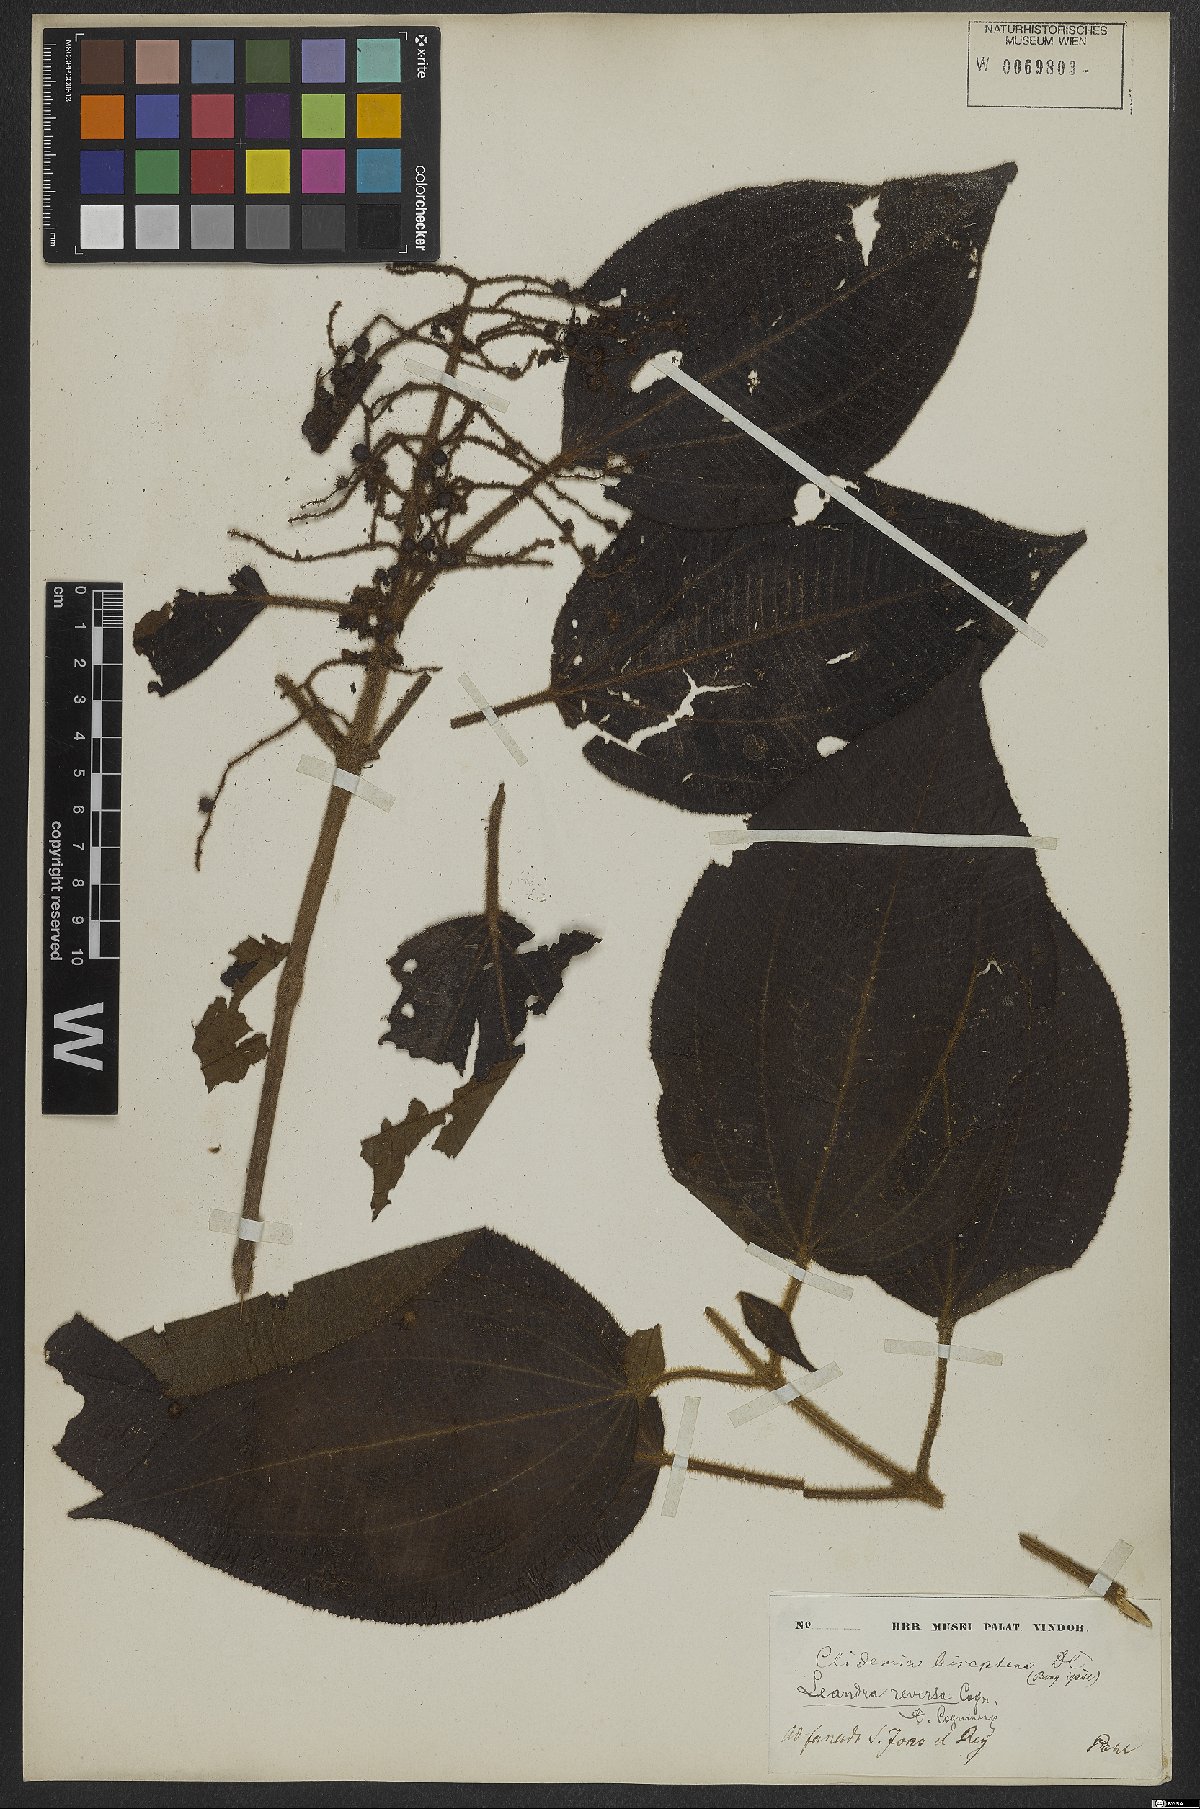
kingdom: Plantae
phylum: Tracheophyta
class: Magnoliopsida
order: Myrtales
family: Melastomataceae
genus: Miconia
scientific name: Miconia reversa
